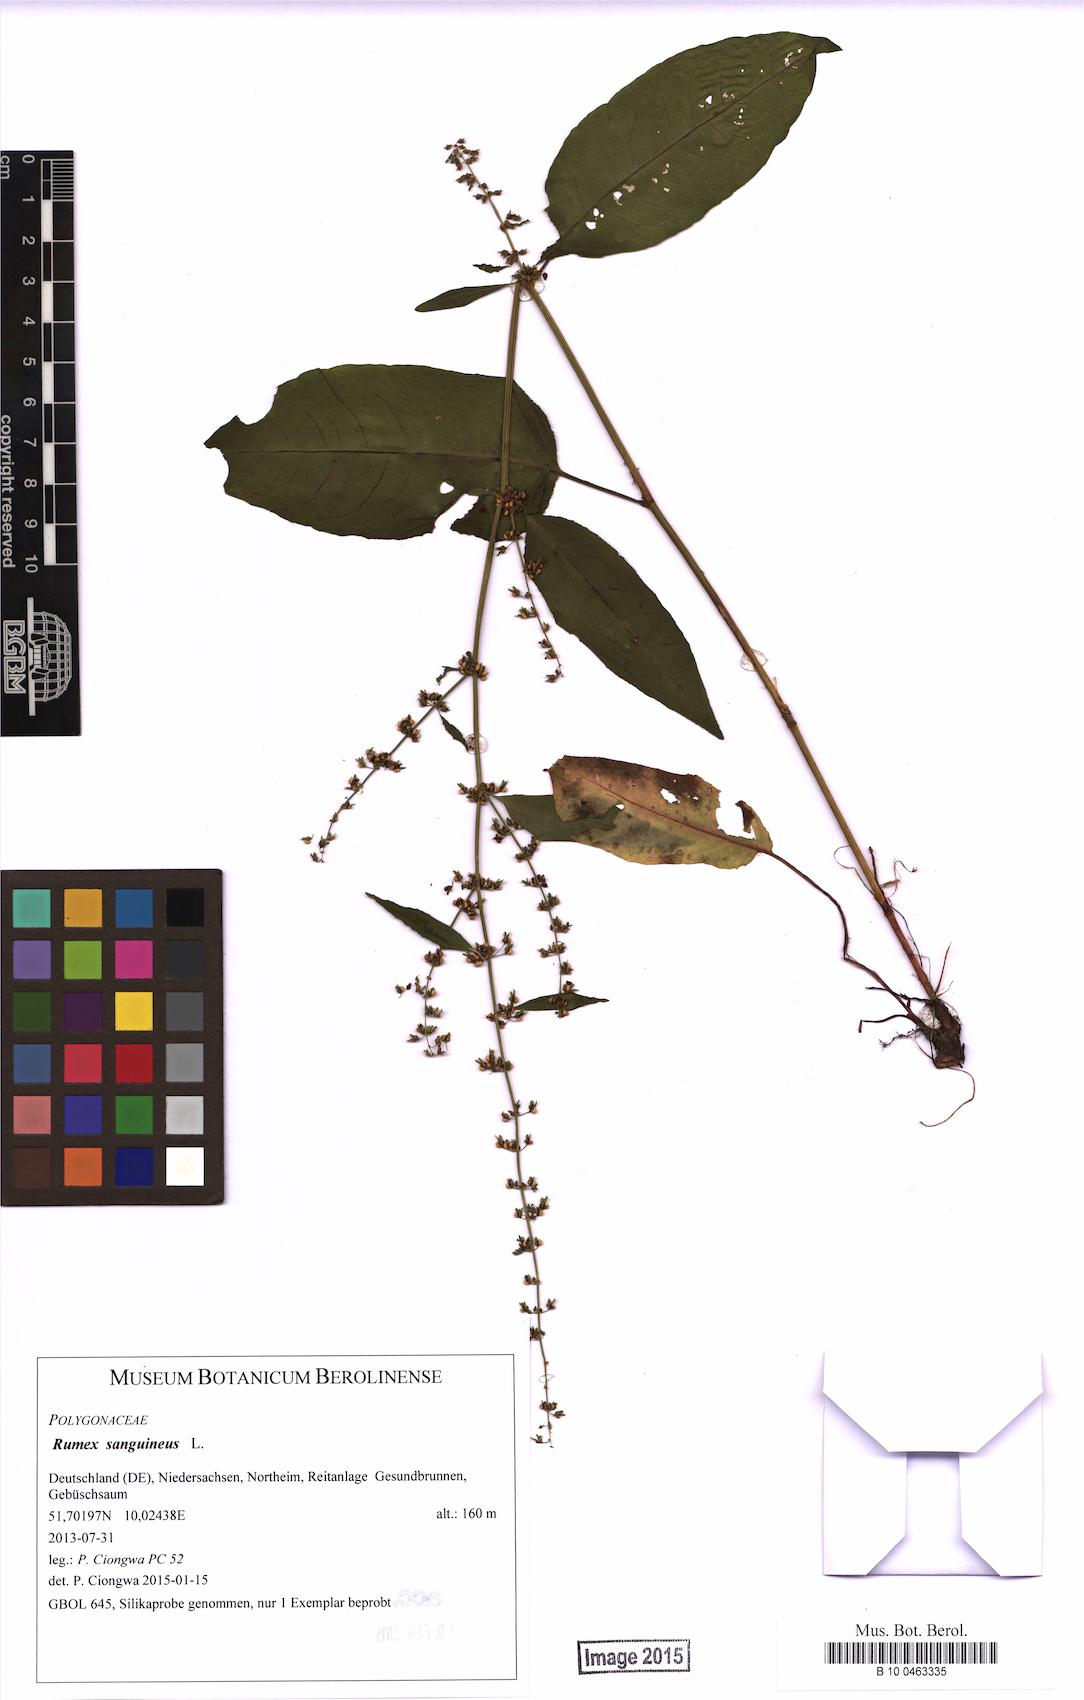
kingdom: Plantae
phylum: Tracheophyta
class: Magnoliopsida
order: Caryophyllales
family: Polygonaceae
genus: Rumex
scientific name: Rumex sanguineus
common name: Wood dock
